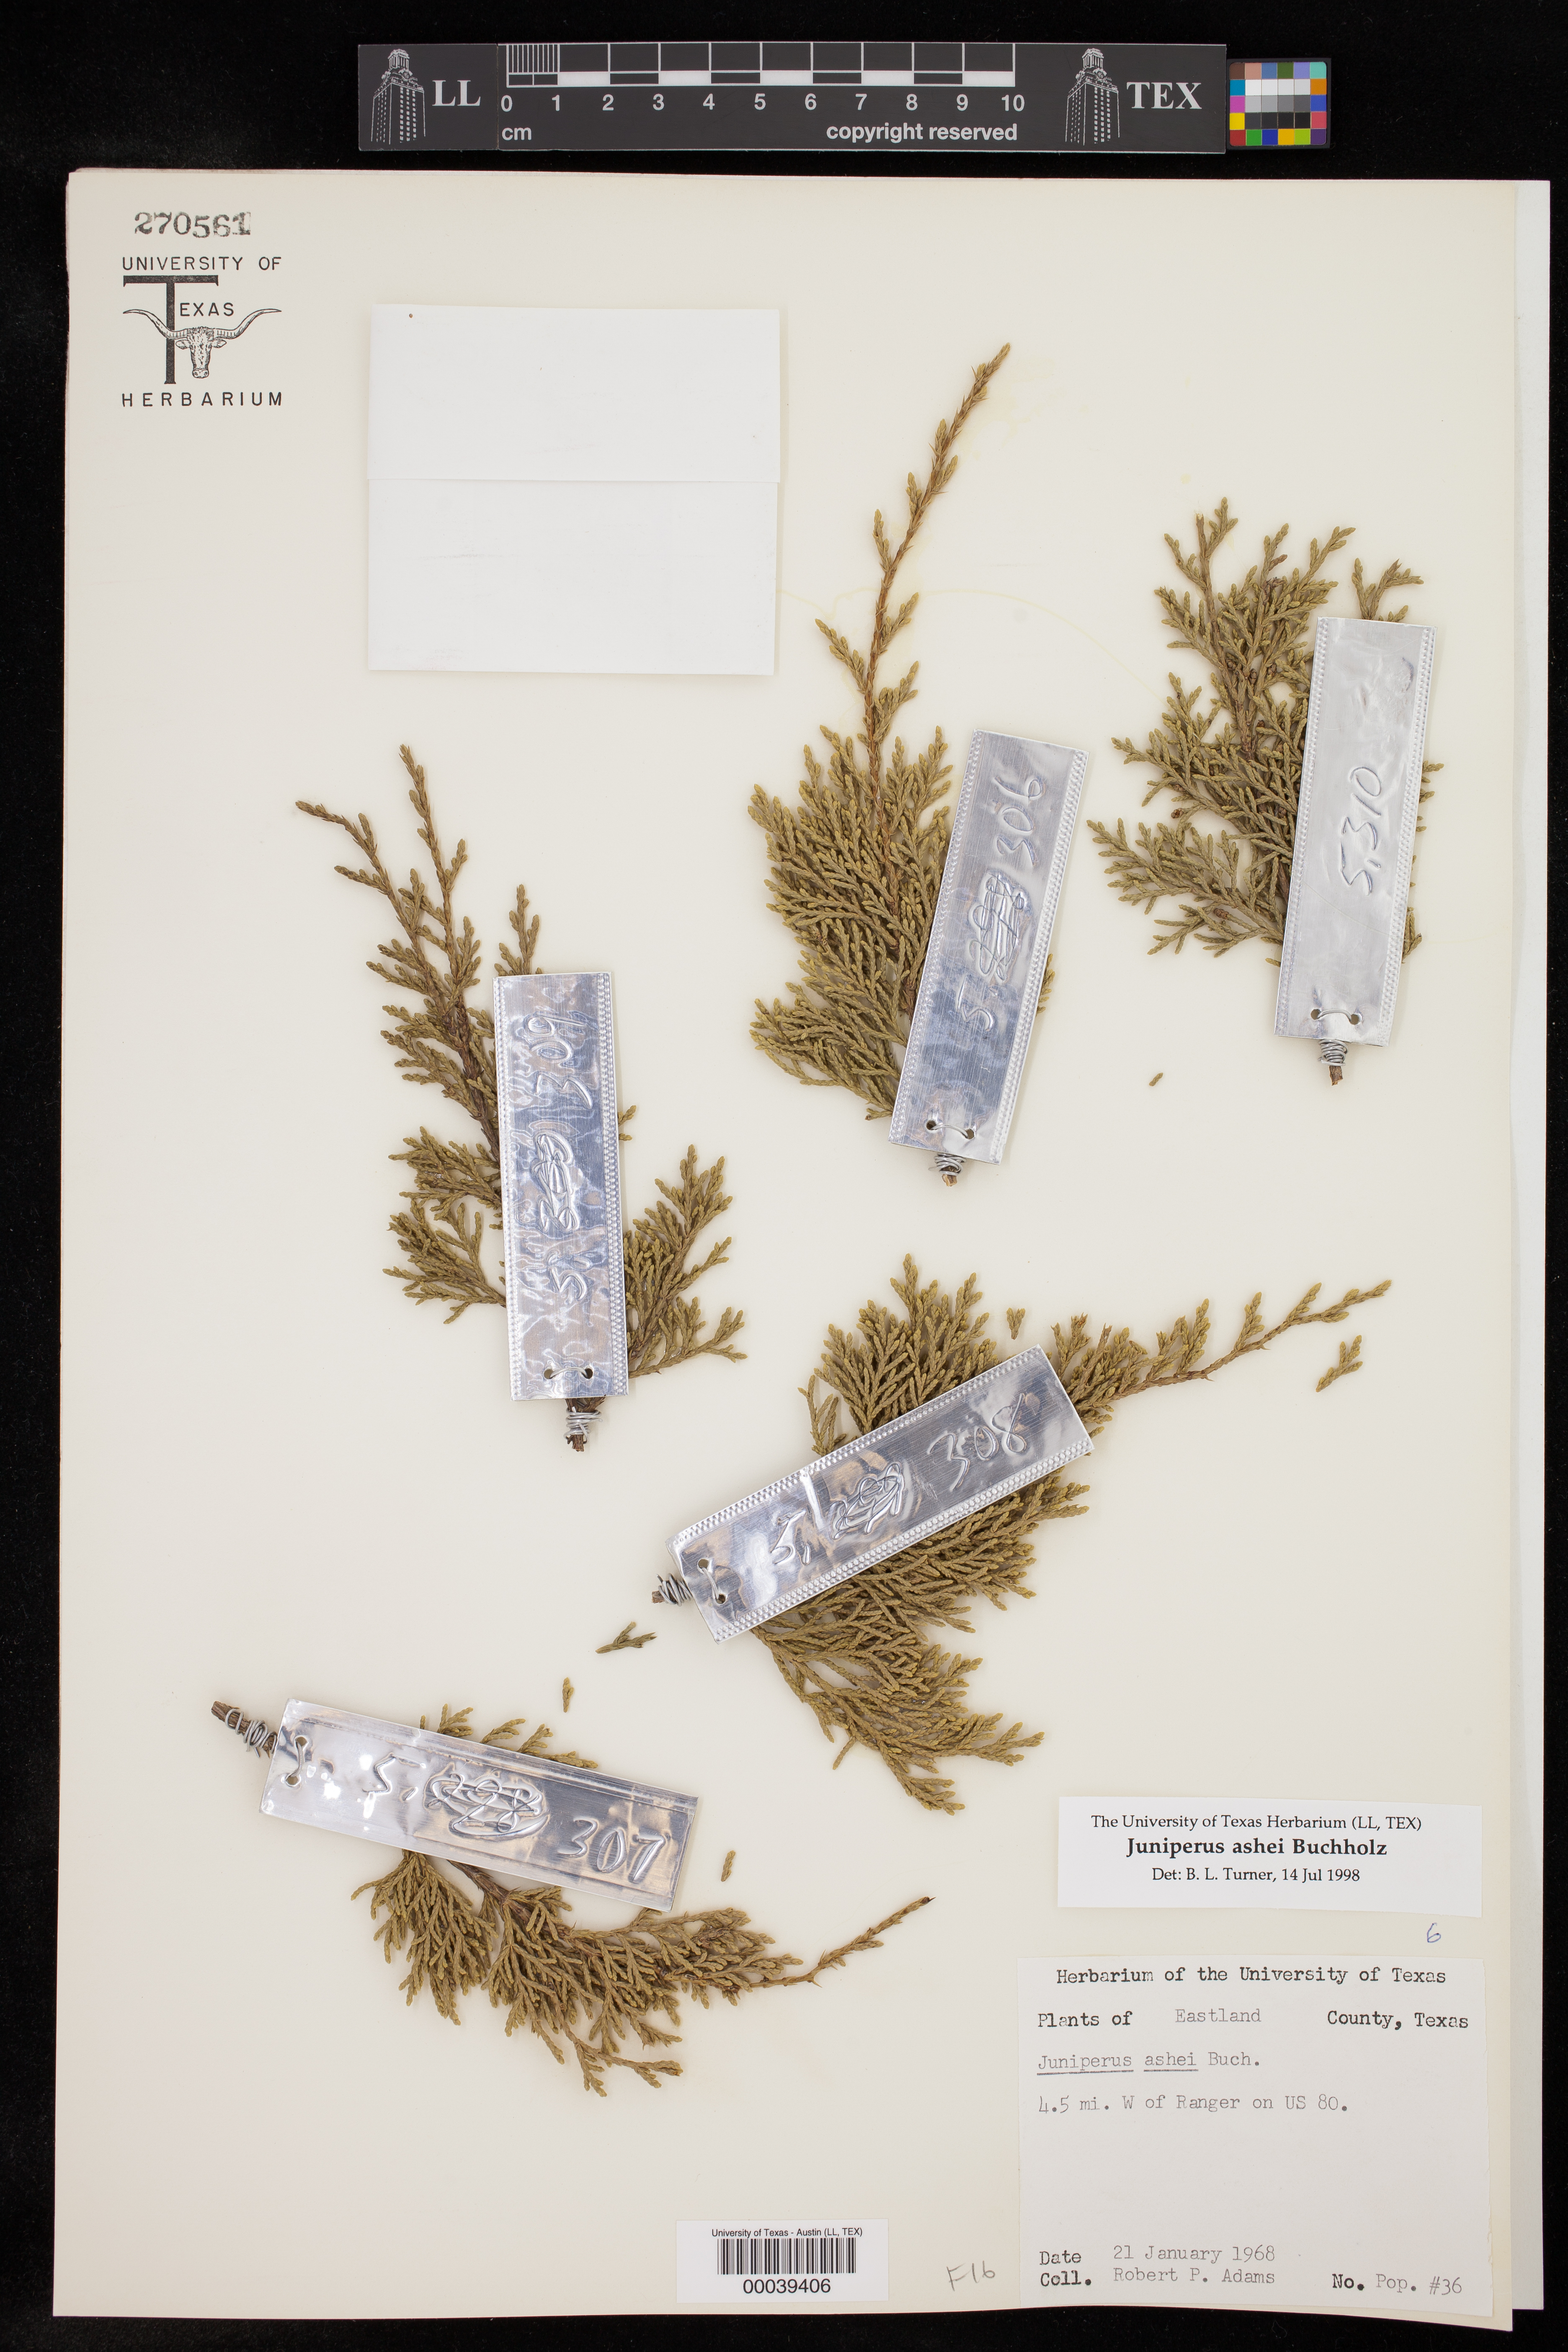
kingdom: Plantae
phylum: Tracheophyta
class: Pinopsida
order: Pinales
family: Cupressaceae
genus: Juniperus
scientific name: Juniperus ashei
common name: Mexican juniper
